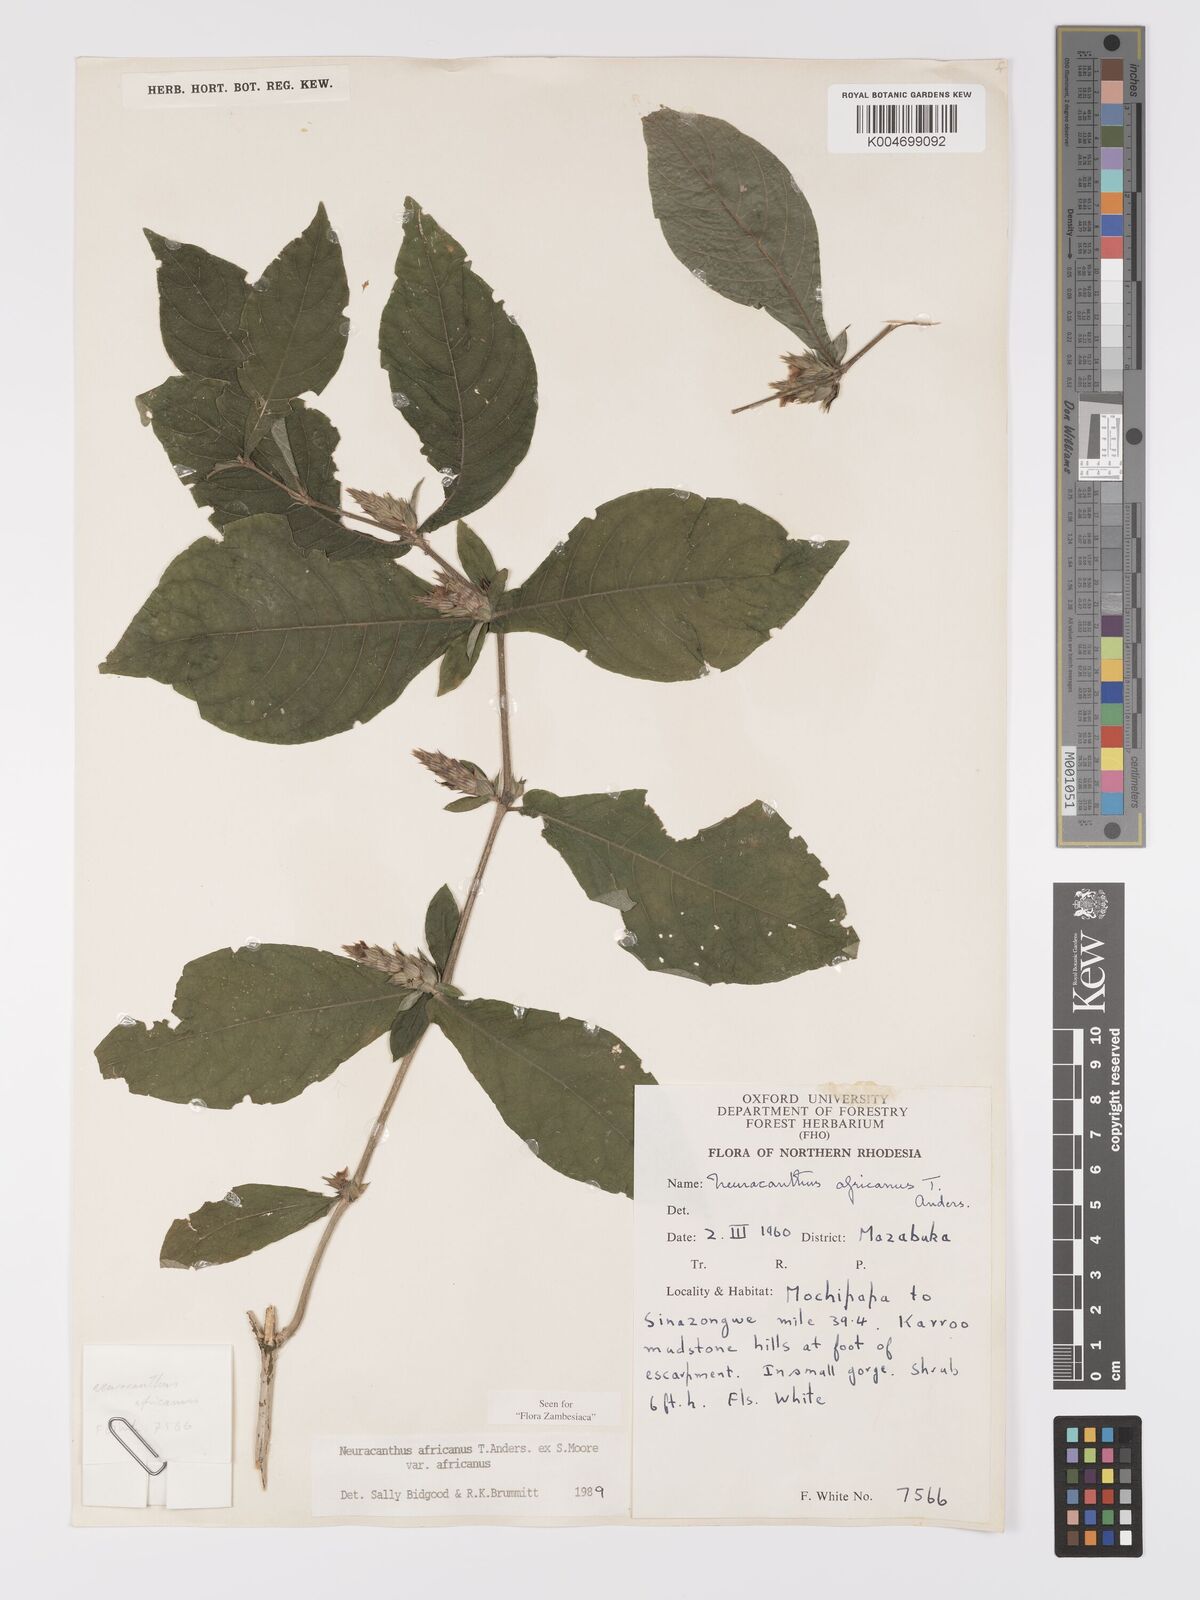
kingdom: Plantae
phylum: Tracheophyta
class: Magnoliopsida
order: Lamiales
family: Acanthaceae
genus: Neuracanthus
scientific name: Neuracanthus africanus
